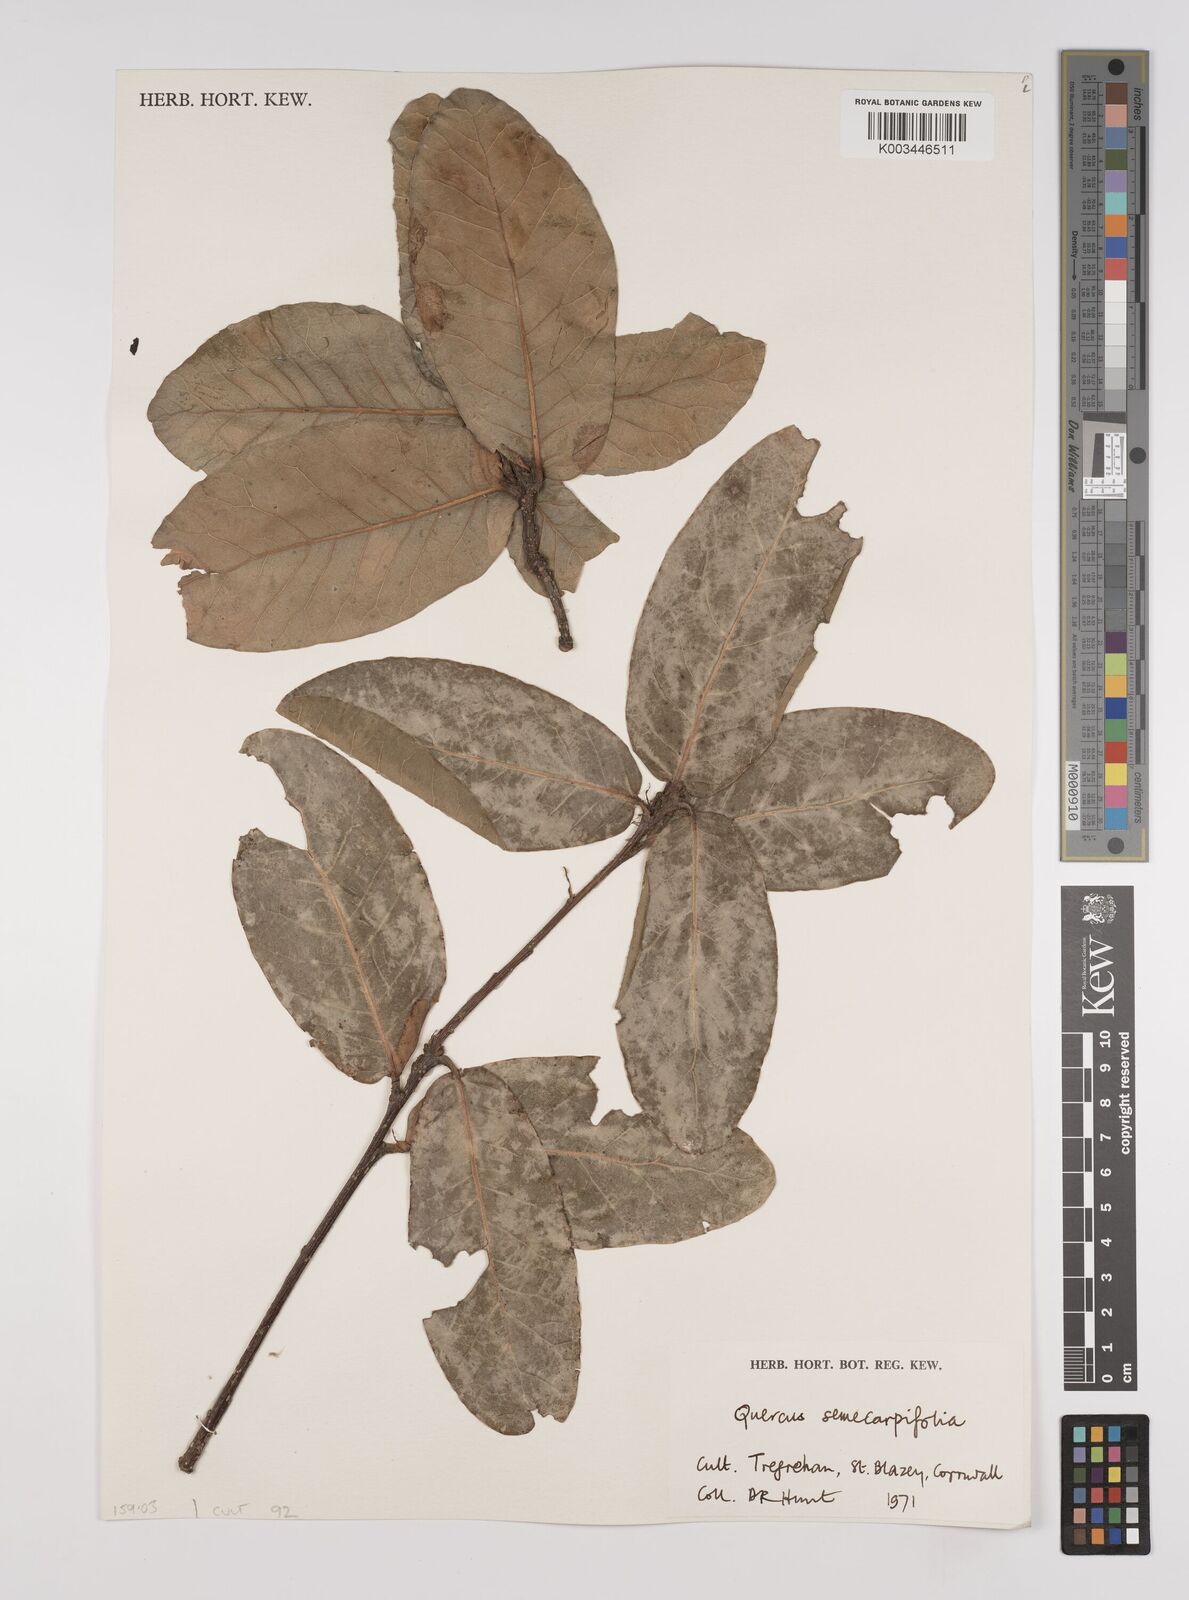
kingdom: Plantae
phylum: Tracheophyta
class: Magnoliopsida
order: Fagales
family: Fagaceae
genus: Quercus
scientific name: Quercus semecarpifolia
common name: Brown oak
